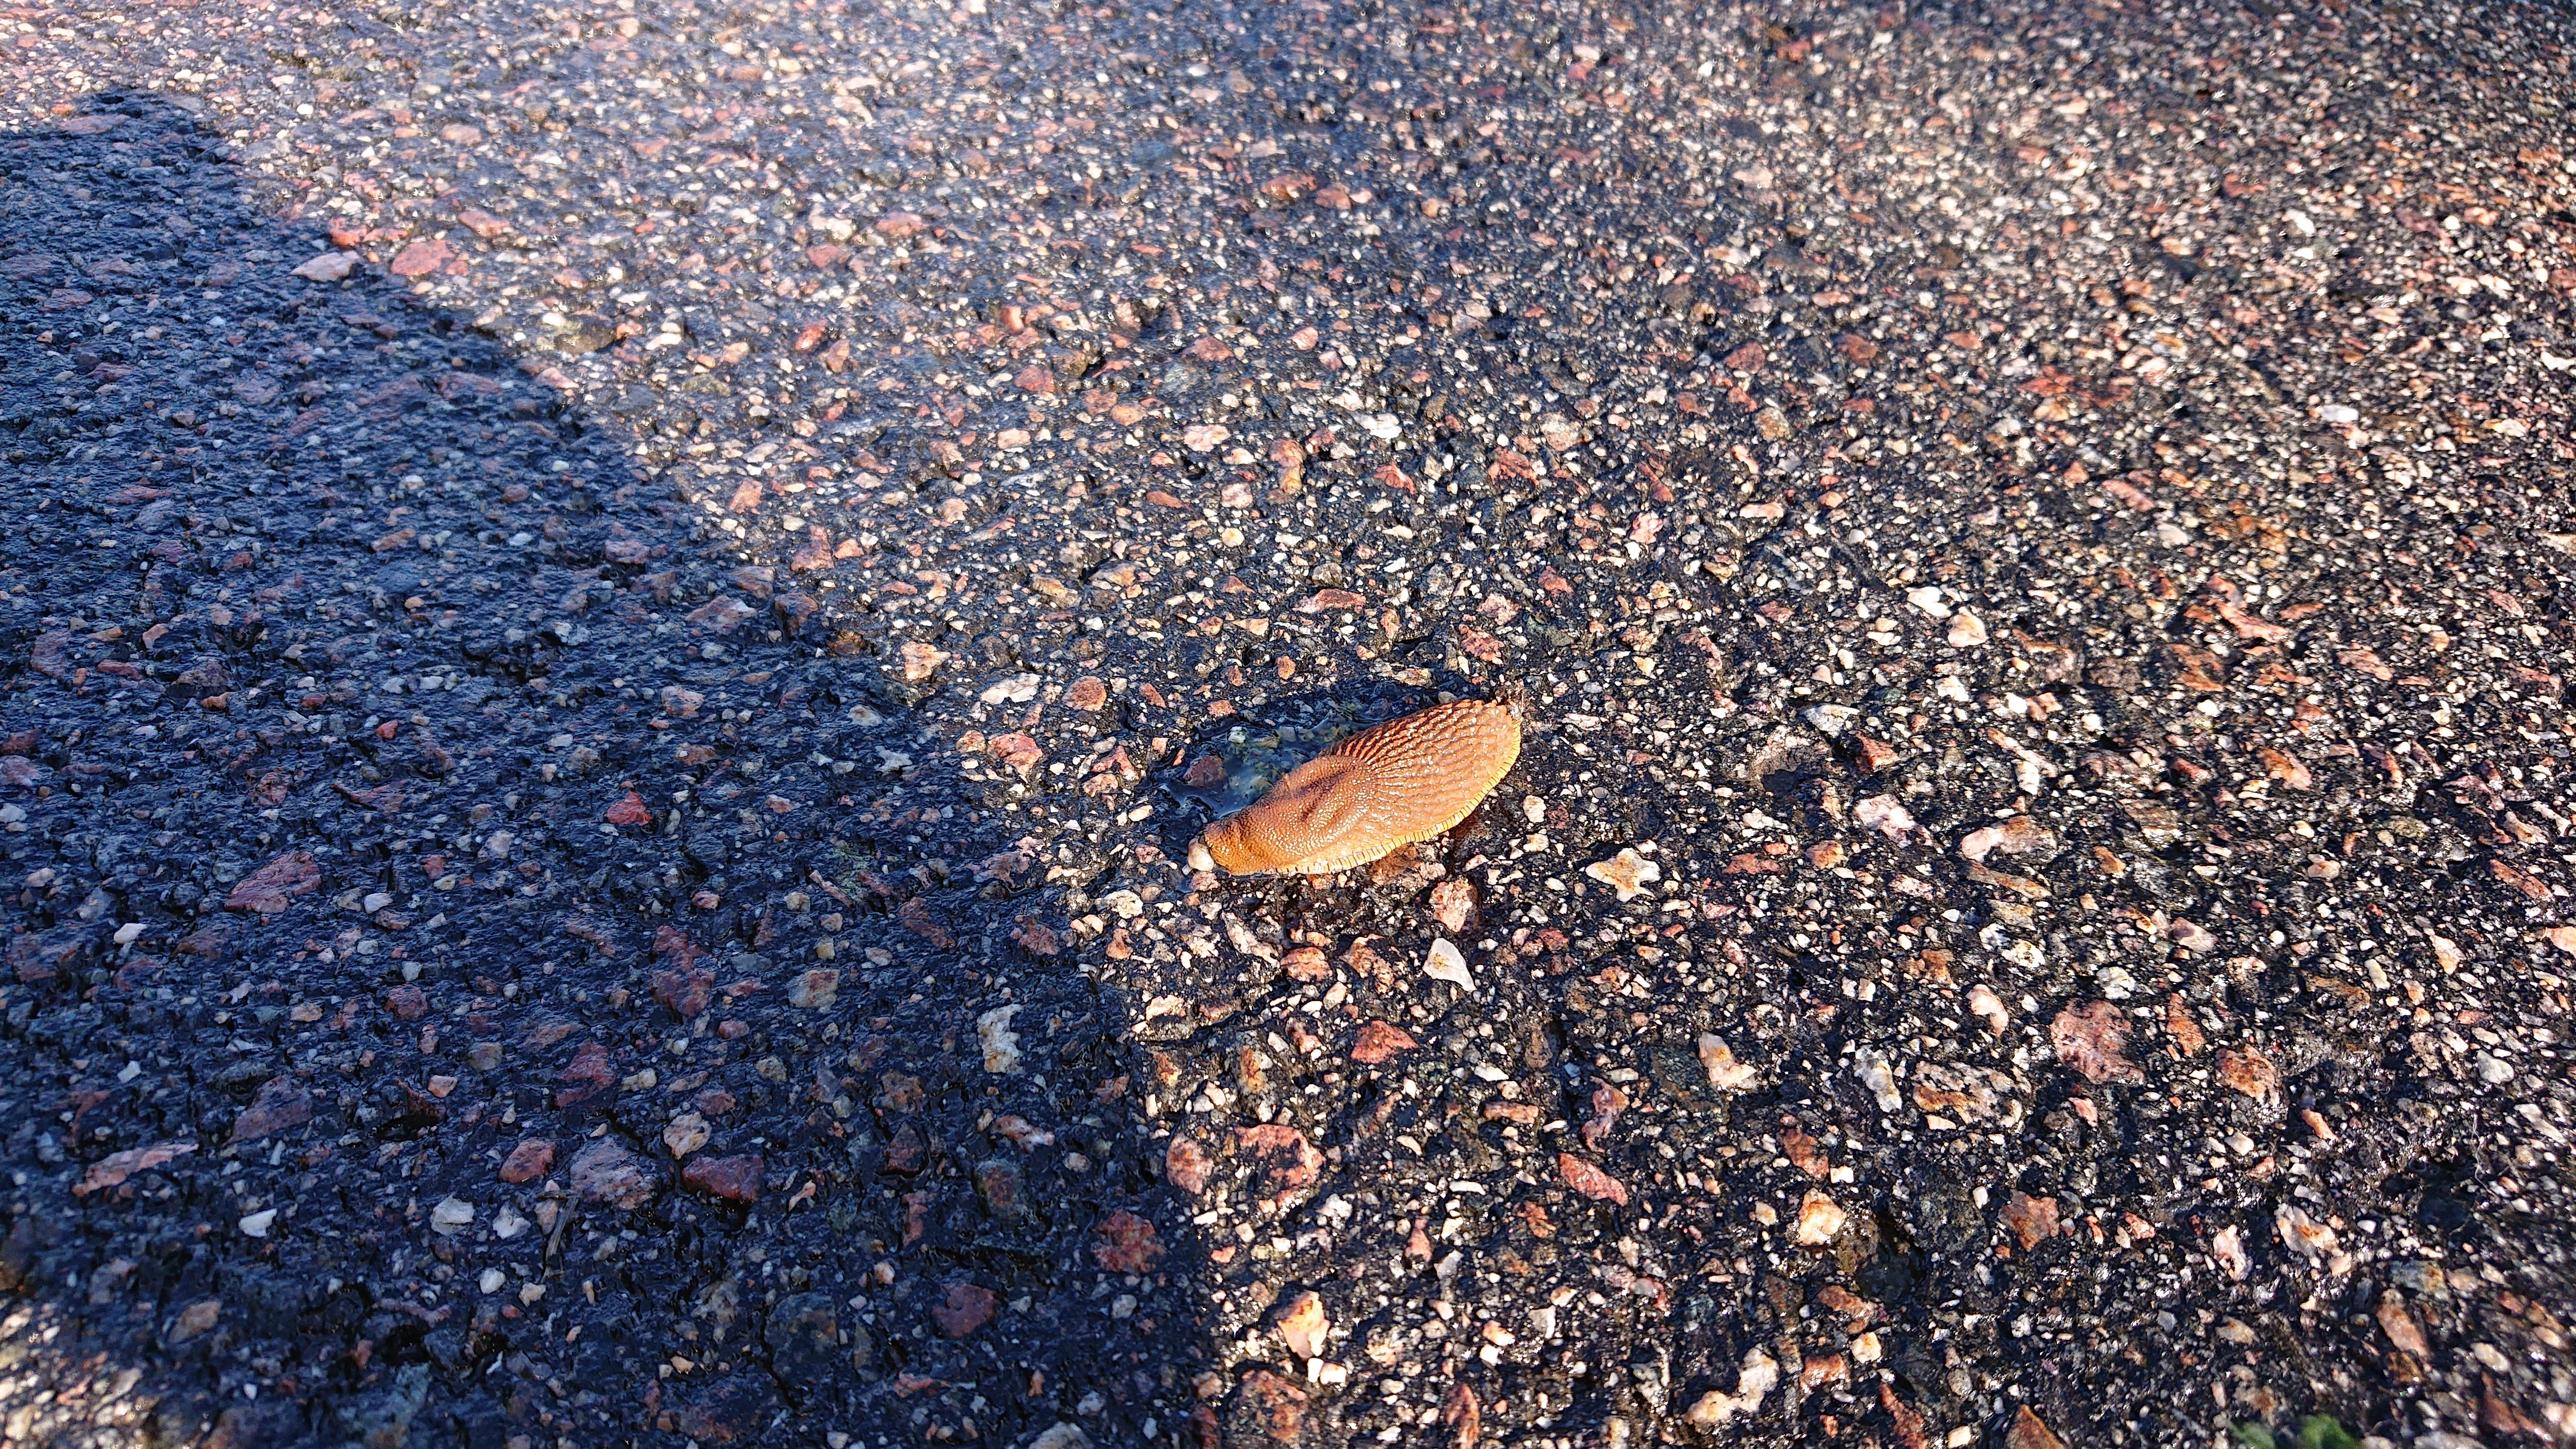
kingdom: Animalia
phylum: Mollusca
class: Gastropoda
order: Stylommatophora
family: Arionidae
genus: Arion
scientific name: Arion vulgaris
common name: Lusitanian slug
